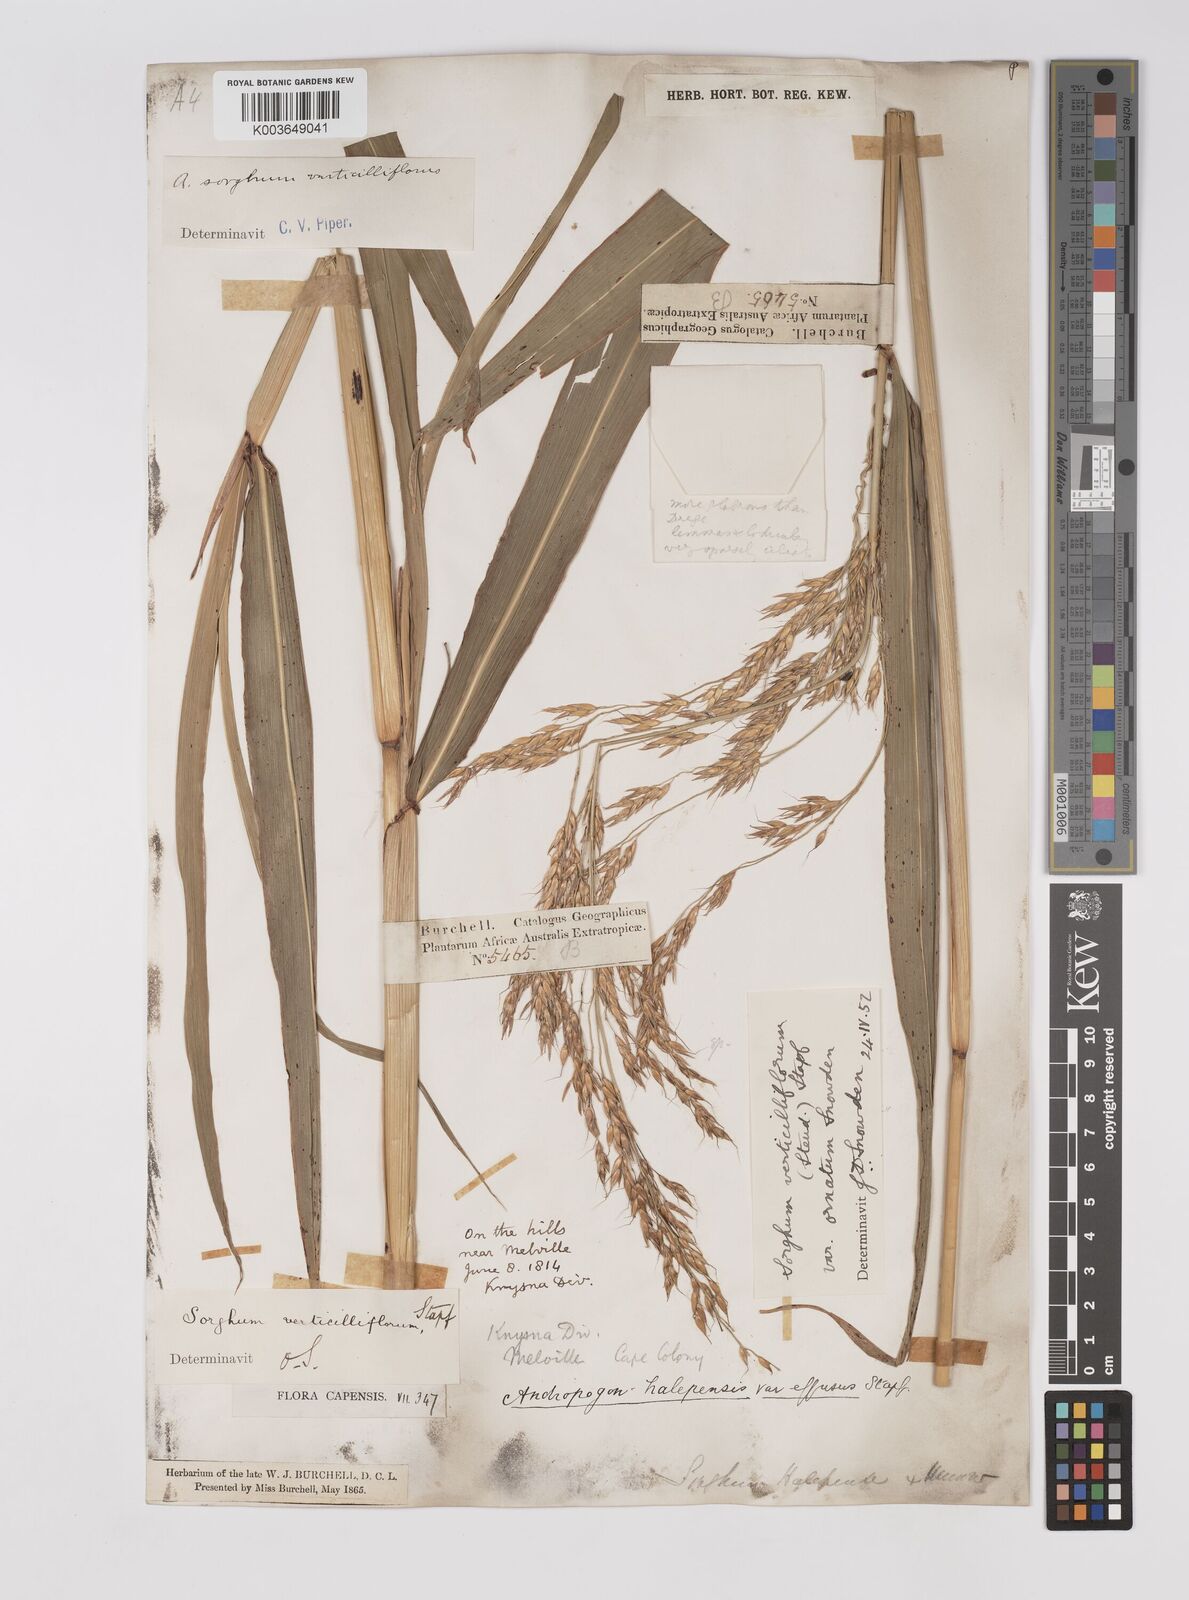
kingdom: Plantae
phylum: Tracheophyta
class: Liliopsida
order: Poales
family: Poaceae
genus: Sorghum
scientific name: Sorghum arundinaceum
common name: Sorghum
